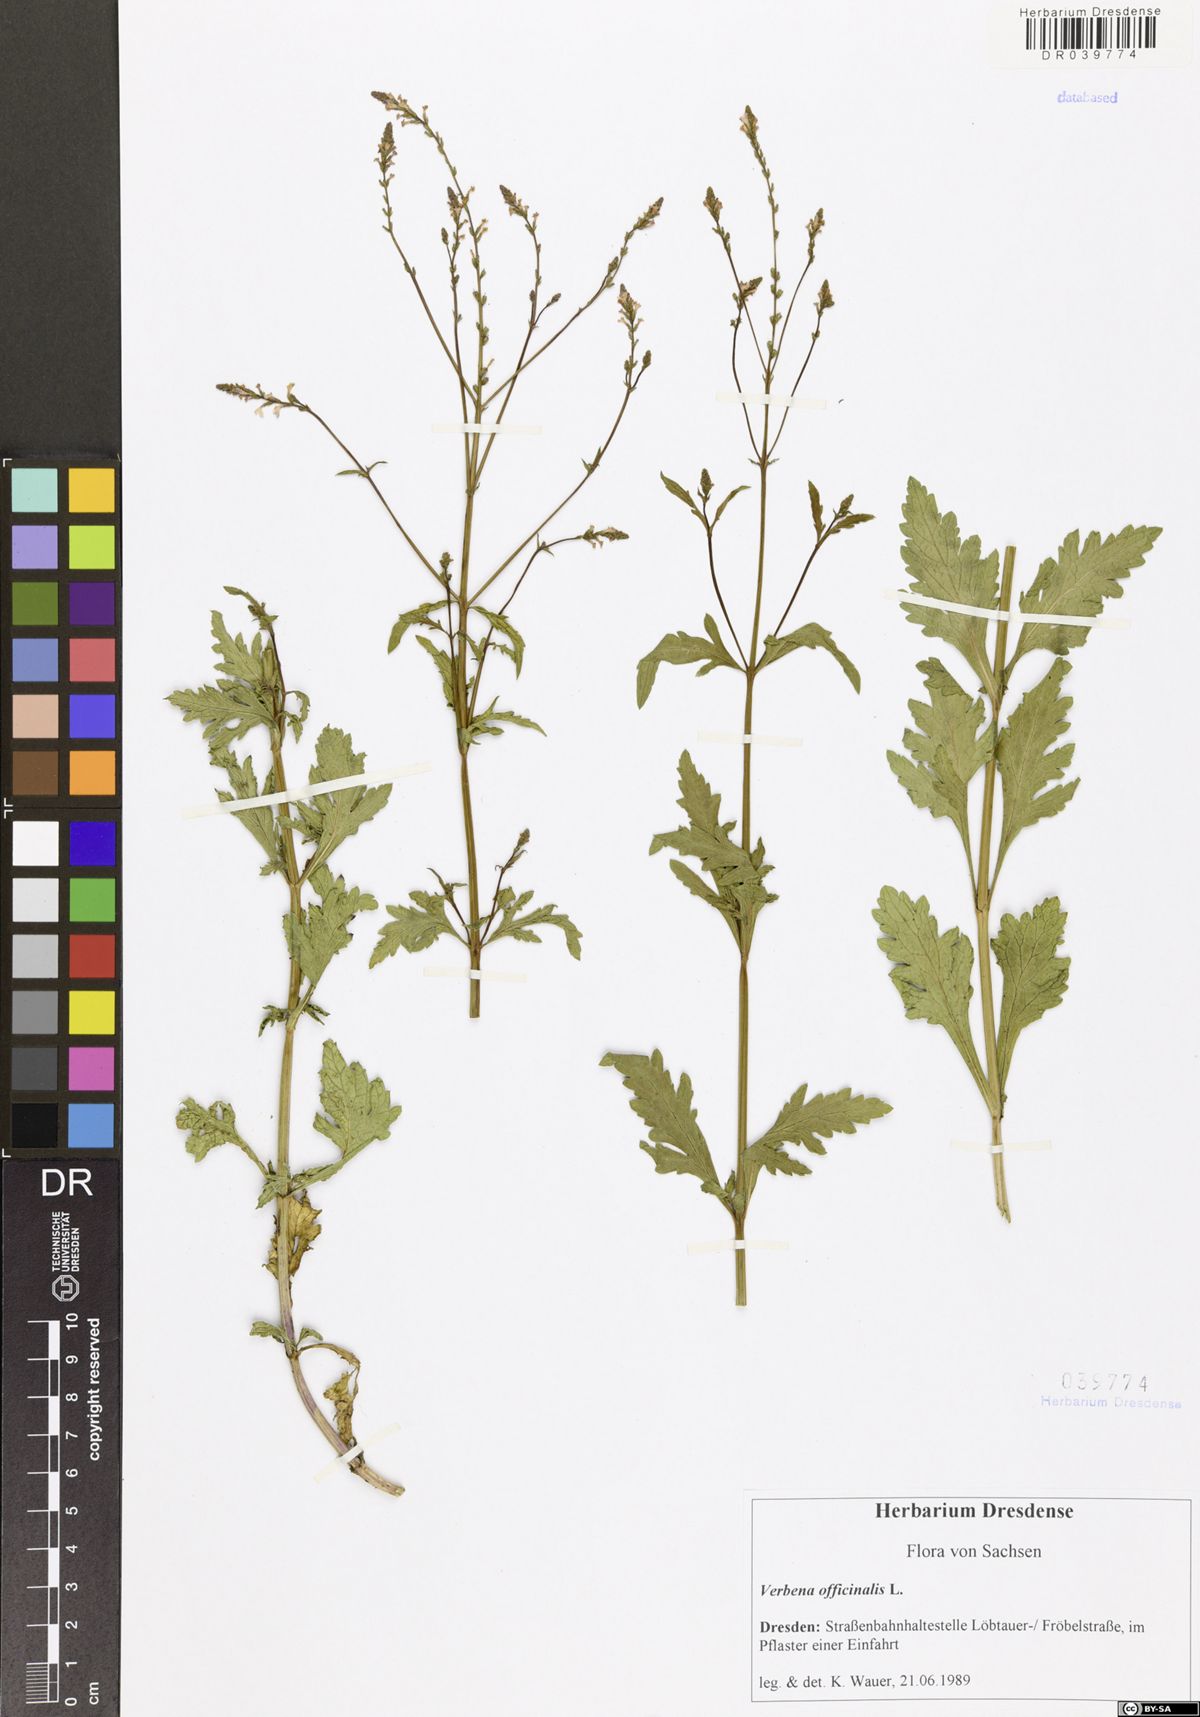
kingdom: Plantae
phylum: Tracheophyta
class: Magnoliopsida
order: Lamiales
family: Verbenaceae
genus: Verbena
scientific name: Verbena officinalis
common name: Vervain
